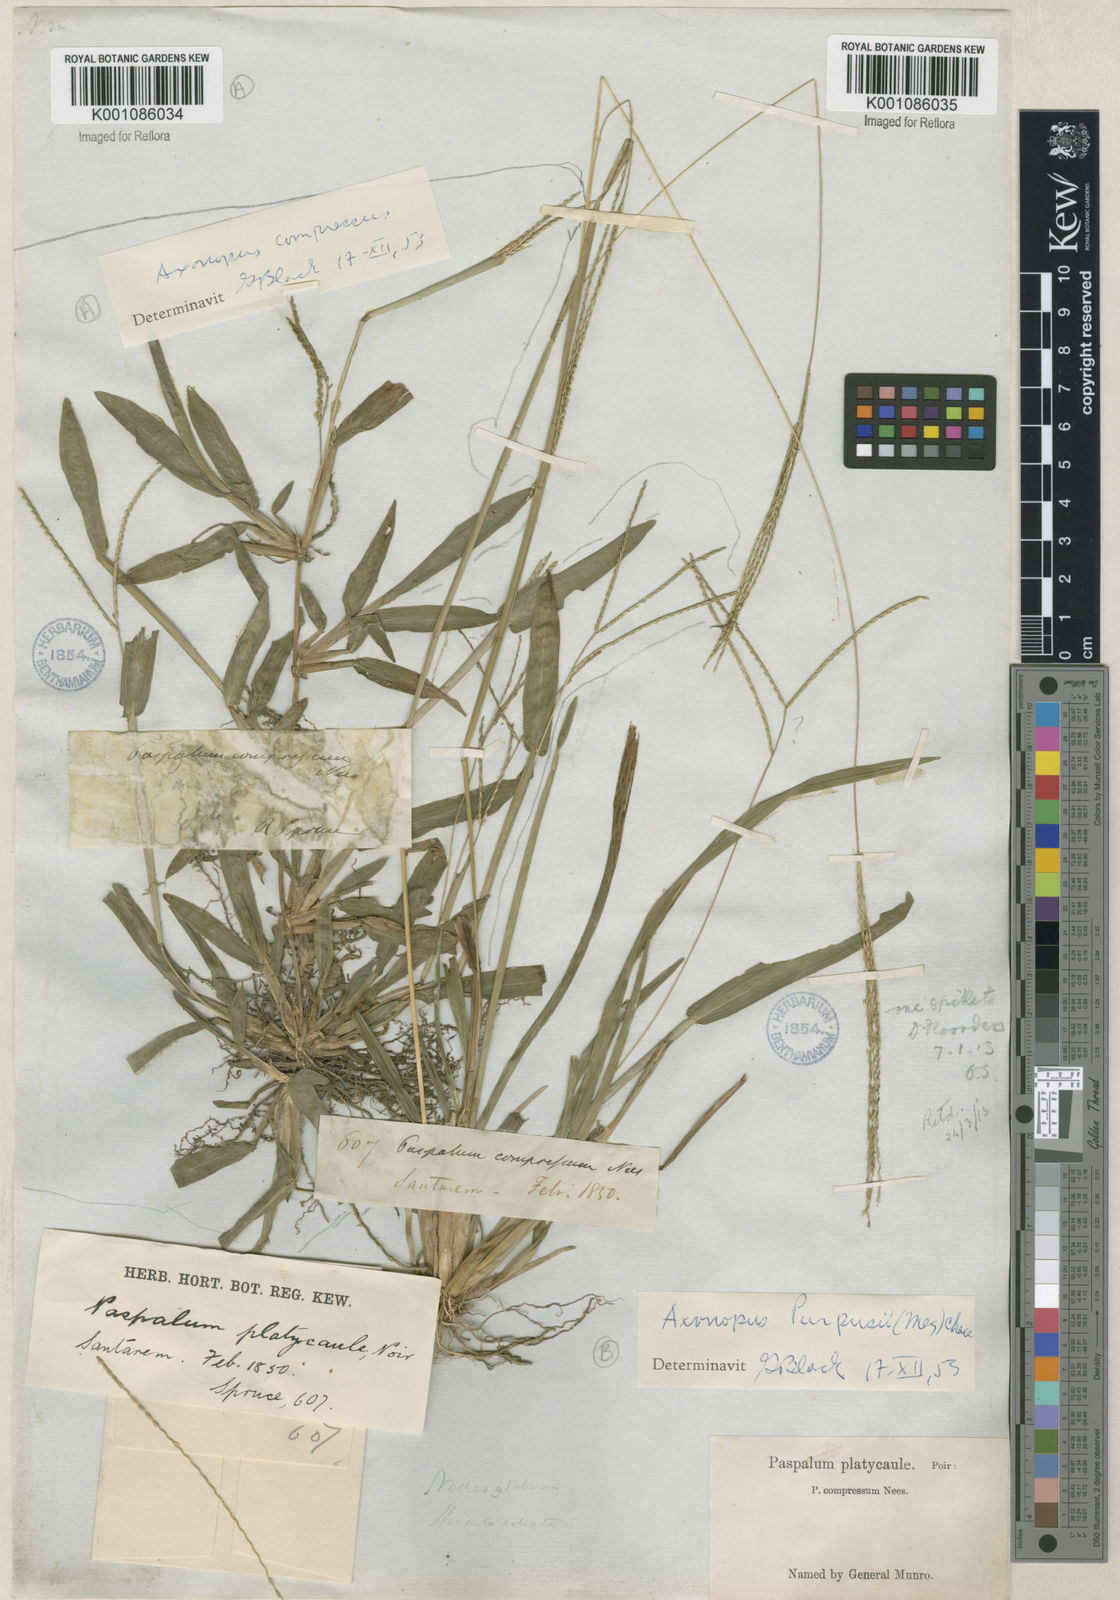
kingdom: Plantae
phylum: Tracheophyta
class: Liliopsida
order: Poales
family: Poaceae
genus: Axonopus
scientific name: Axonopus purpusii
